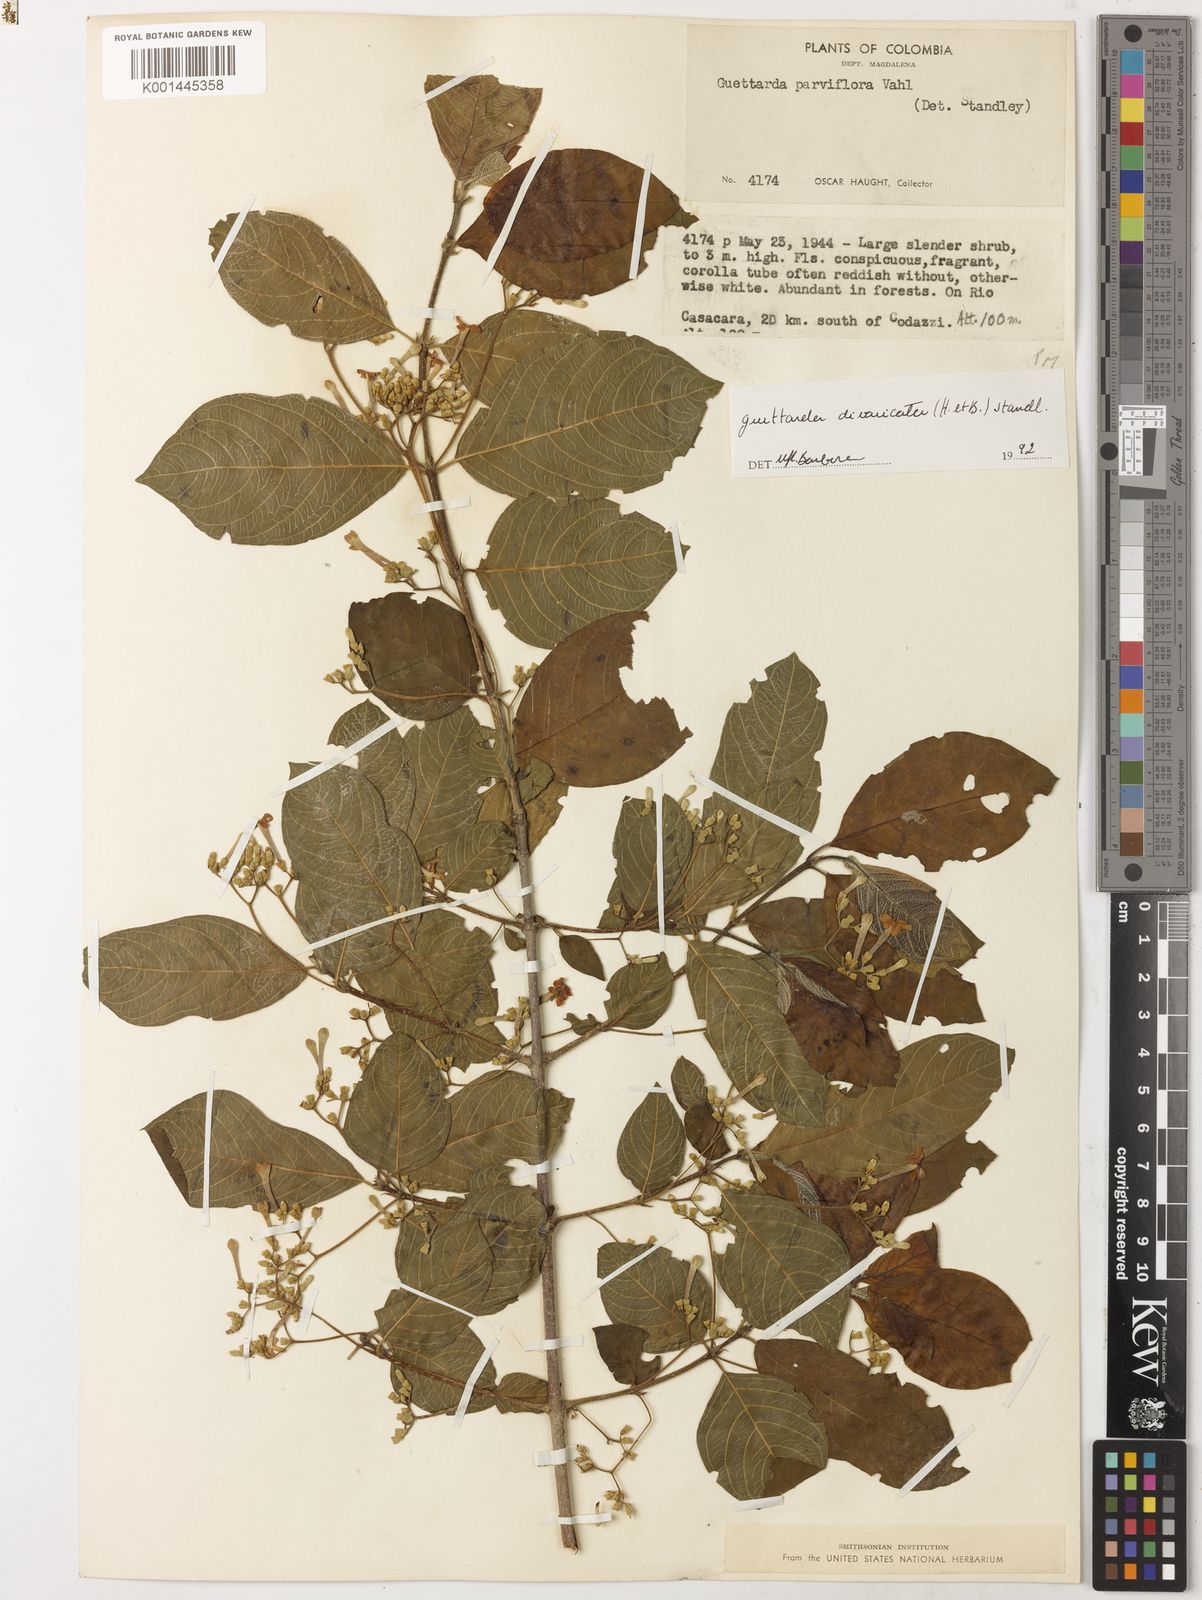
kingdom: Plantae
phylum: Tracheophyta
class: Magnoliopsida
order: Gentianales
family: Rubiaceae
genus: Guettarda
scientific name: Guettarda divaricata
